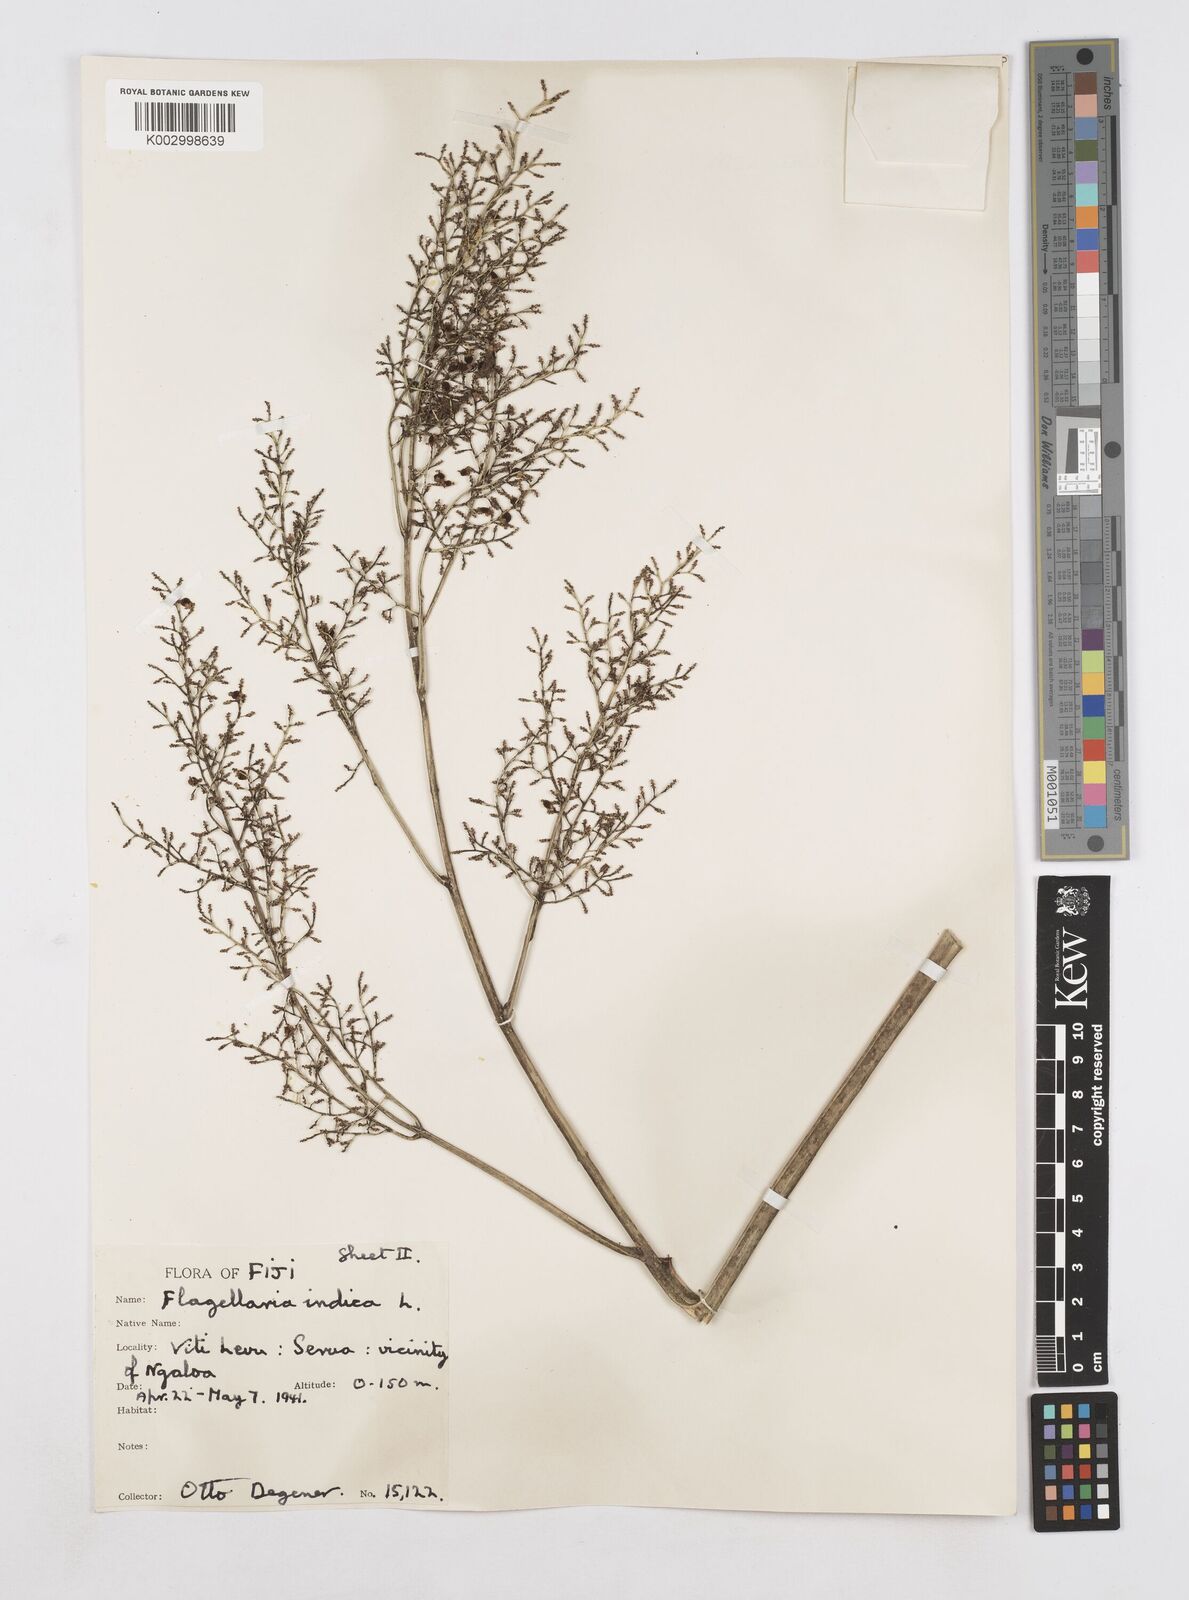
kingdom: Plantae
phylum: Tracheophyta
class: Liliopsida
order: Poales
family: Flagellariaceae
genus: Flagellaria
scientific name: Flagellaria gigantea
